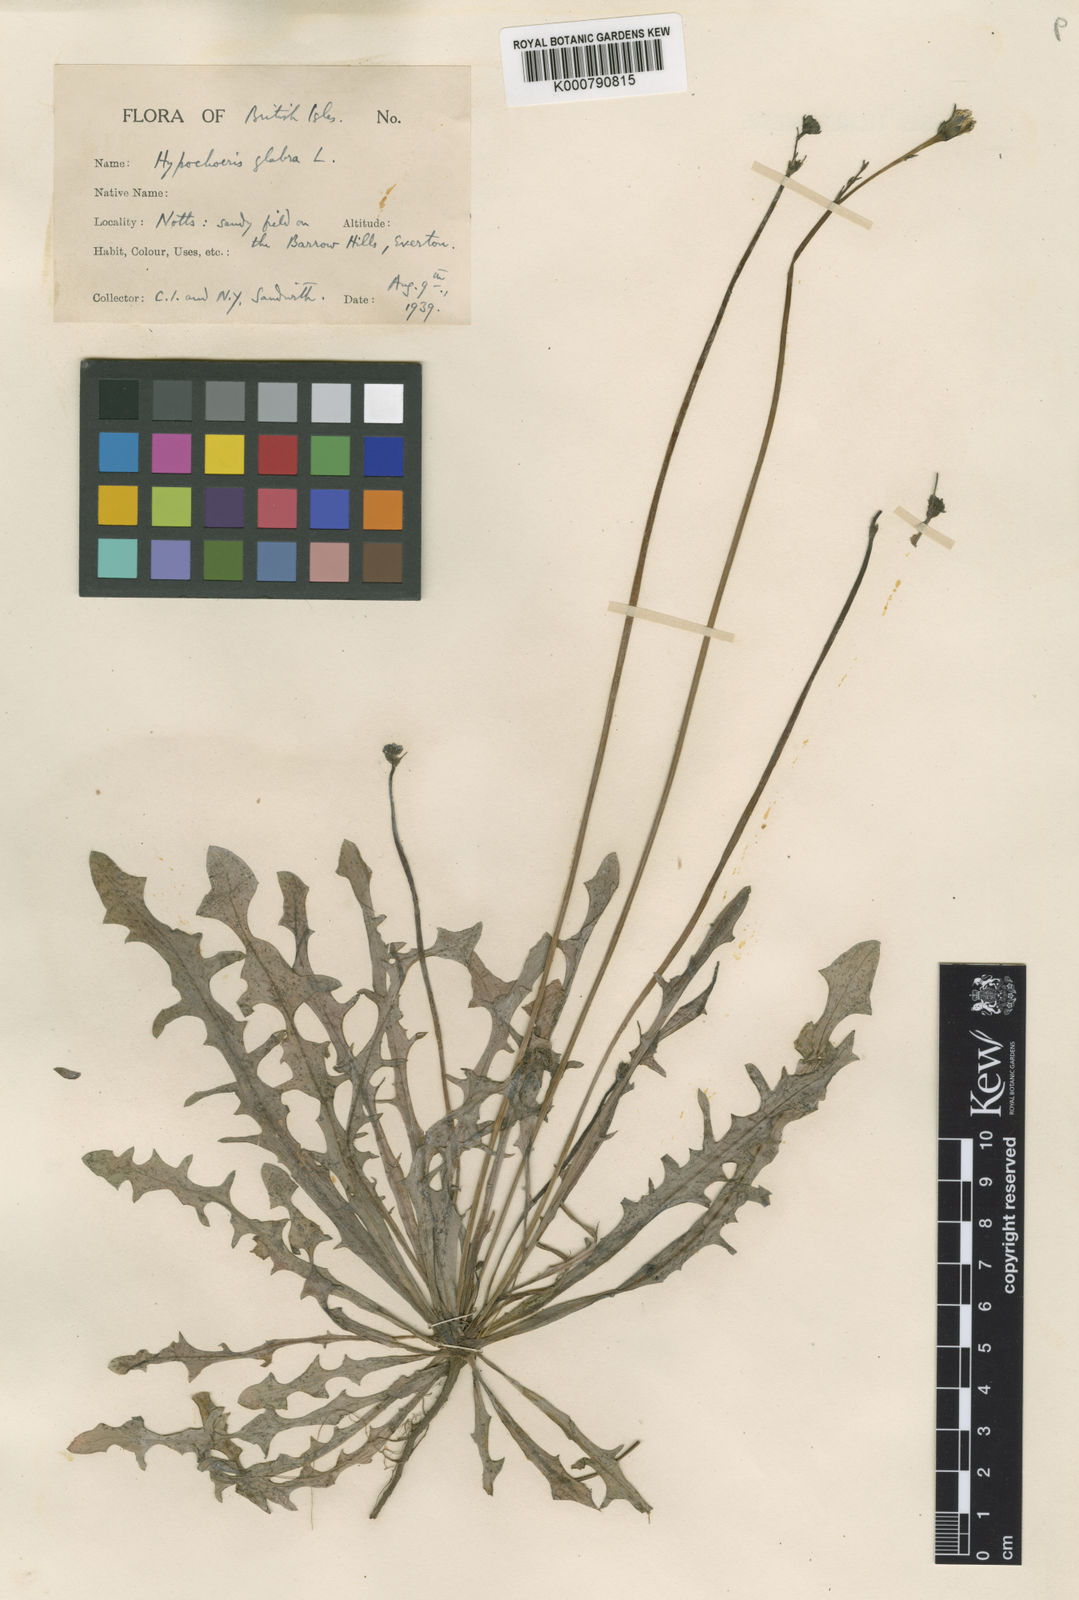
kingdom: Plantae
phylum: Tracheophyta
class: Magnoliopsida
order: Asterales
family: Asteraceae
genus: Hypochaeris
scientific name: Hypochaeris glabra
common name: Smooth catsear
